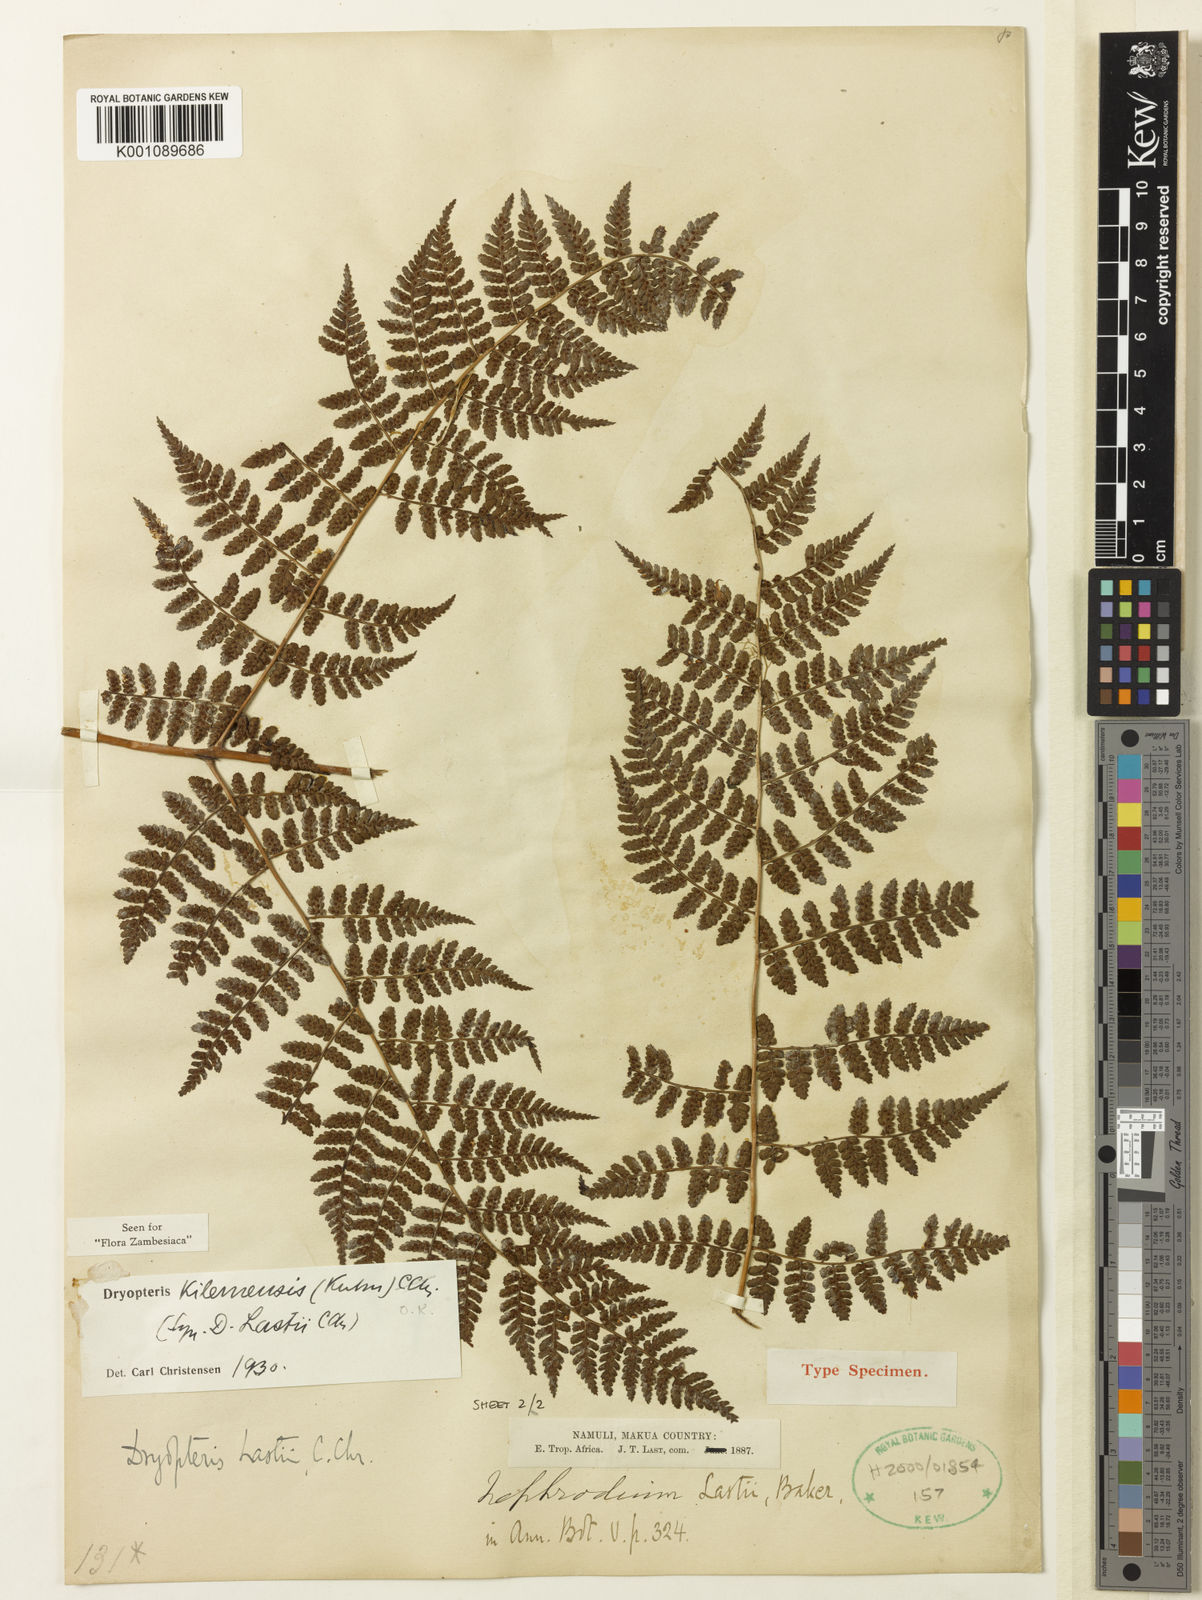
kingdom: Plantae
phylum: Tracheophyta
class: Polypodiopsida
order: Polypodiales
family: Dryopteridaceae
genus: Dryopteris
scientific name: Dryopteris kilemensis
